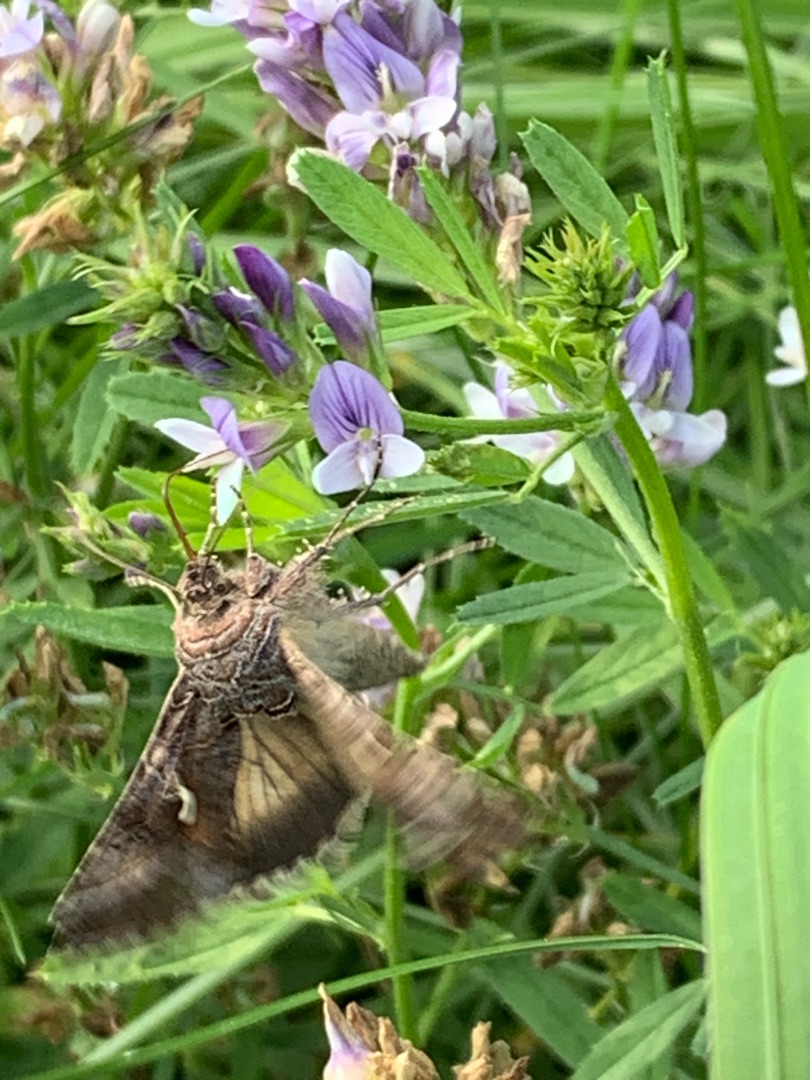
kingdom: Animalia
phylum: Arthropoda
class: Insecta
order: Lepidoptera
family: Noctuidae
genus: Autographa
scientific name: Autographa gamma
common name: Gammaugle
